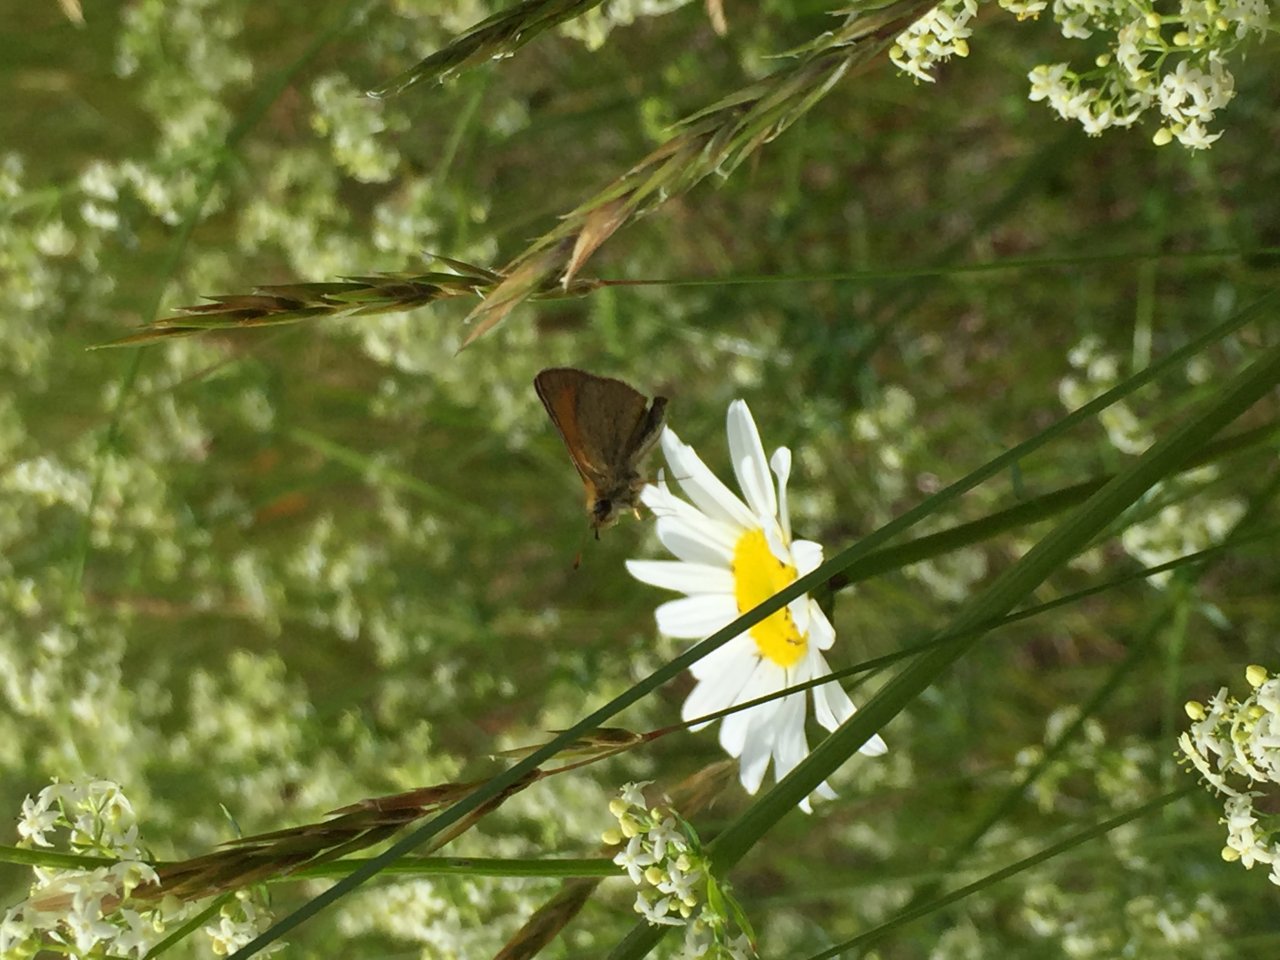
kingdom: Animalia
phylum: Arthropoda
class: Insecta
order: Lepidoptera
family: Hesperiidae
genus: Polites
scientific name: Polites themistocles
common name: Tawny-edged Skipper
